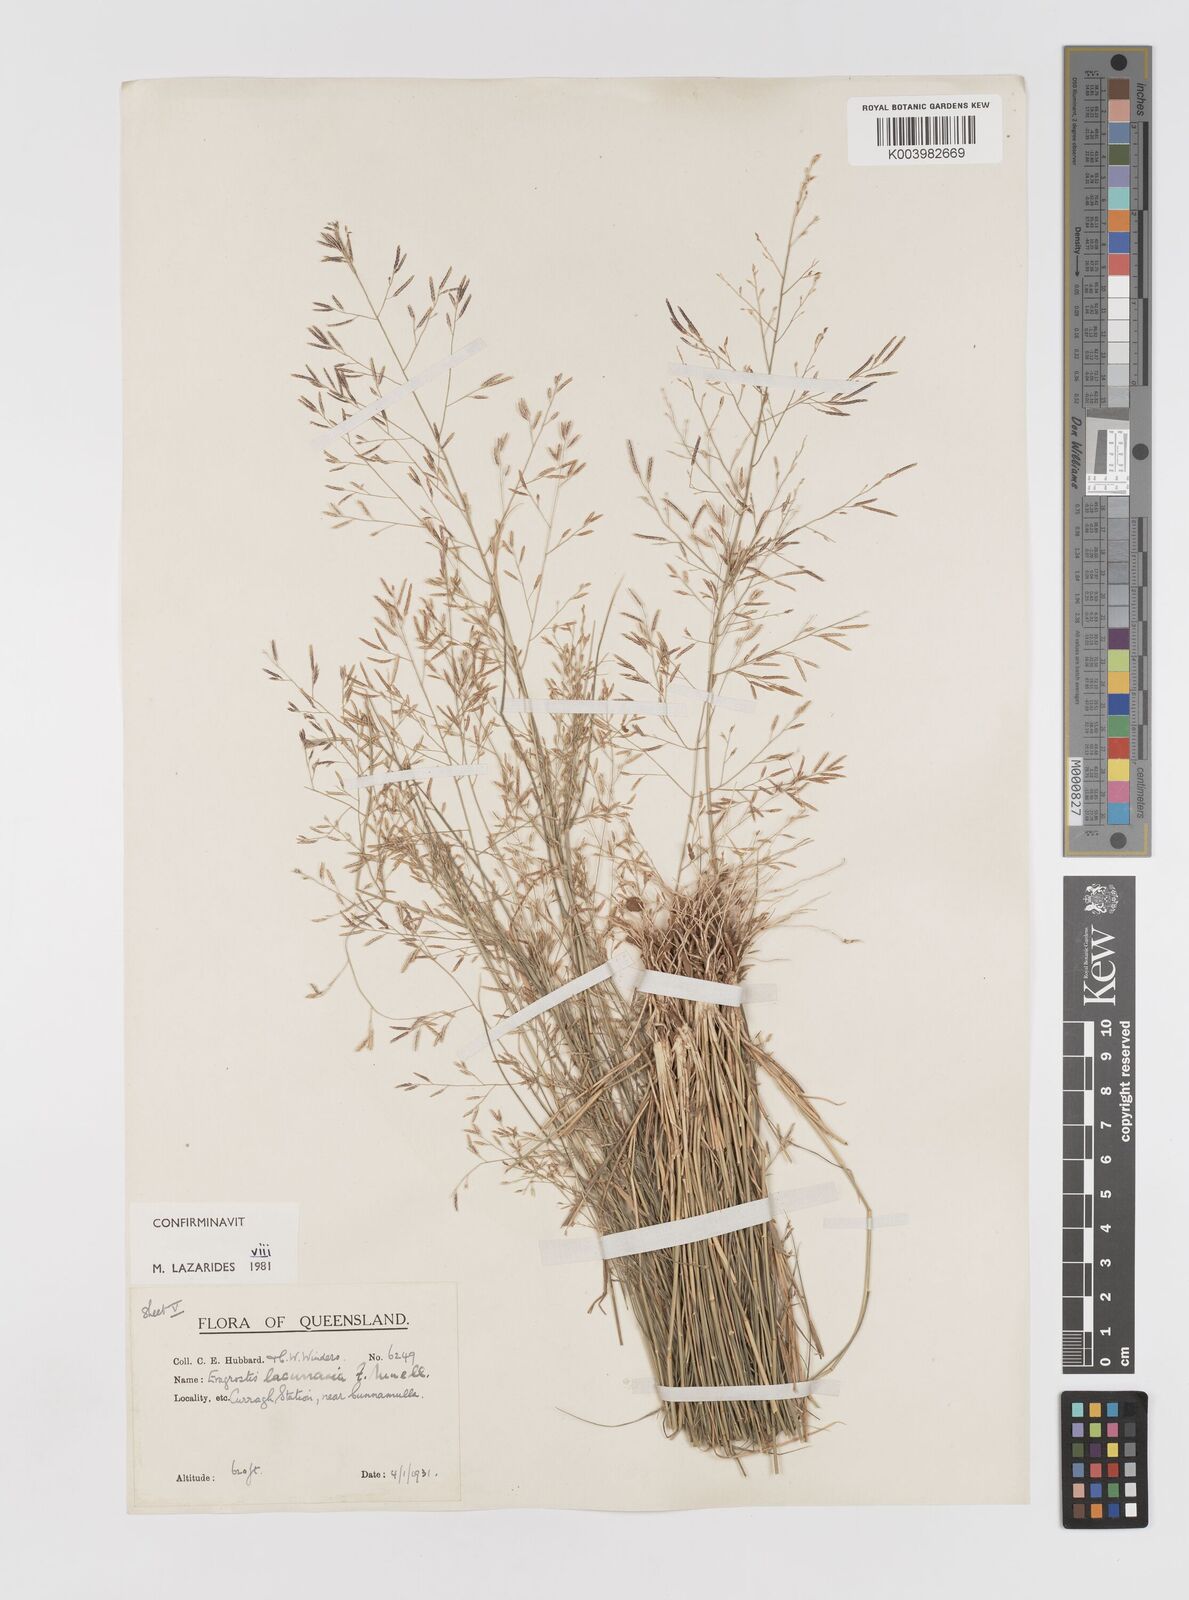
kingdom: Plantae
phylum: Tracheophyta
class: Liliopsida
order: Poales
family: Poaceae
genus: Eragrostis
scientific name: Eragrostis lacunaria
